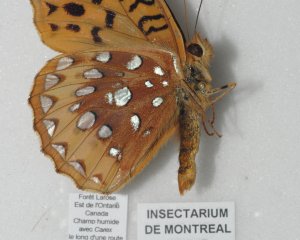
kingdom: Animalia
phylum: Arthropoda
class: Insecta
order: Lepidoptera
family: Nymphalidae
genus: Speyeria
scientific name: Speyeria cybele
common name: Great Spangled Fritillary
